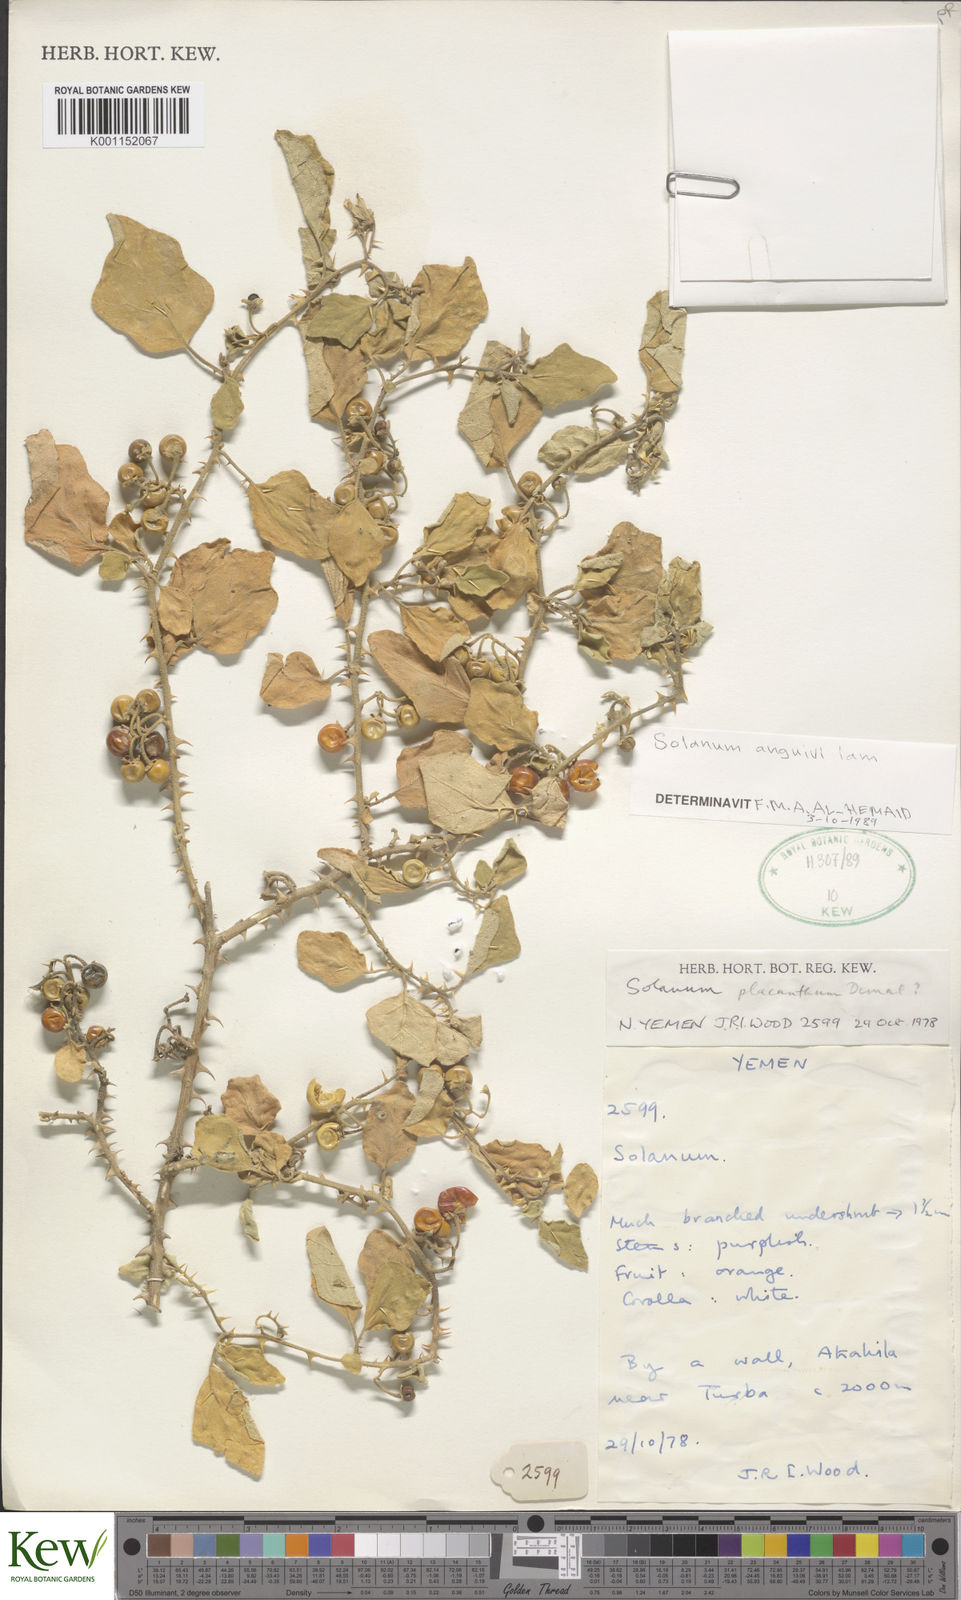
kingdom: Plantae
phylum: Tracheophyta
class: Magnoliopsida
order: Solanales
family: Solanaceae
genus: Solanum
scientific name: Solanum anguivi
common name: Forest bitterberry
